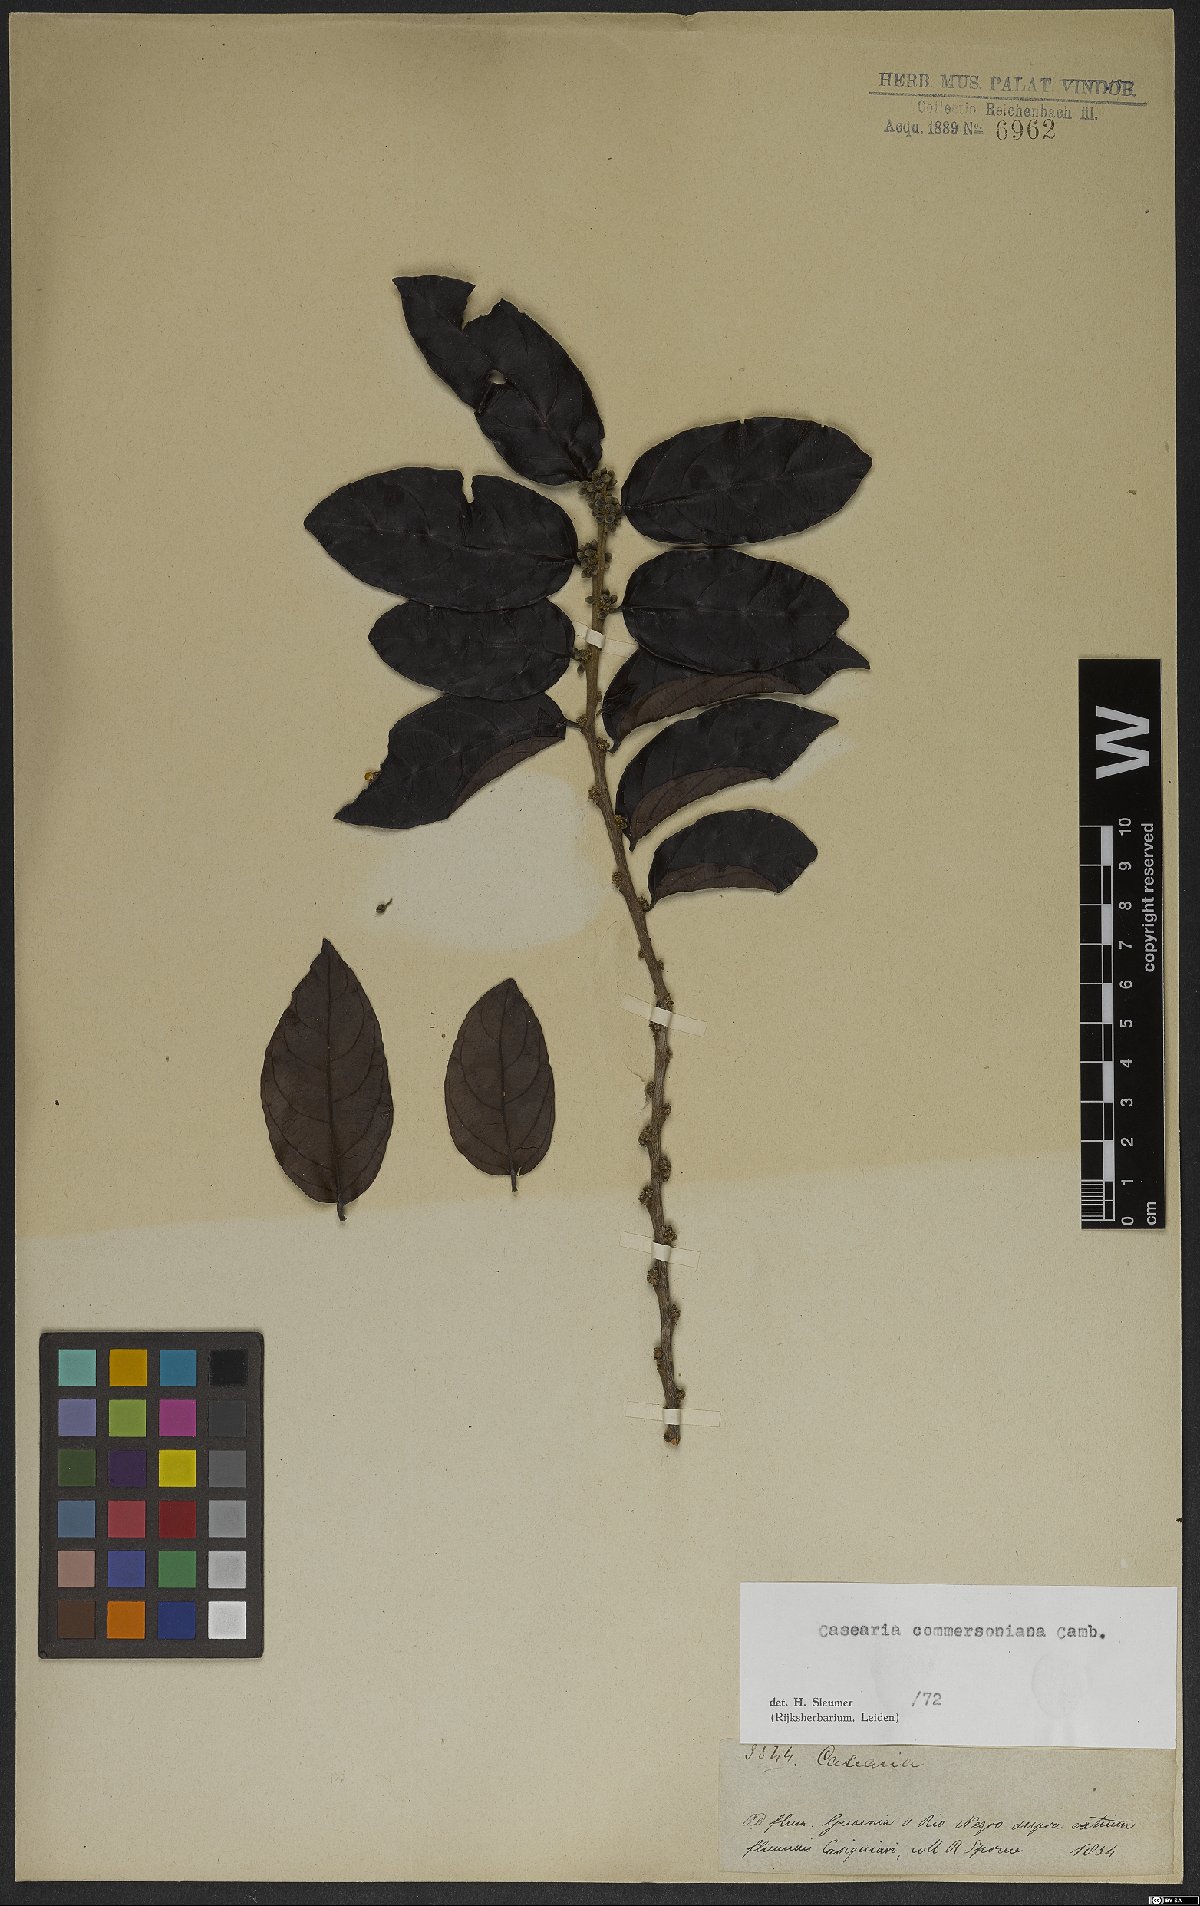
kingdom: Plantae
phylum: Tracheophyta
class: Magnoliopsida
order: Malpighiales
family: Salicaceae
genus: Piparea
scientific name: Piparea dentata
